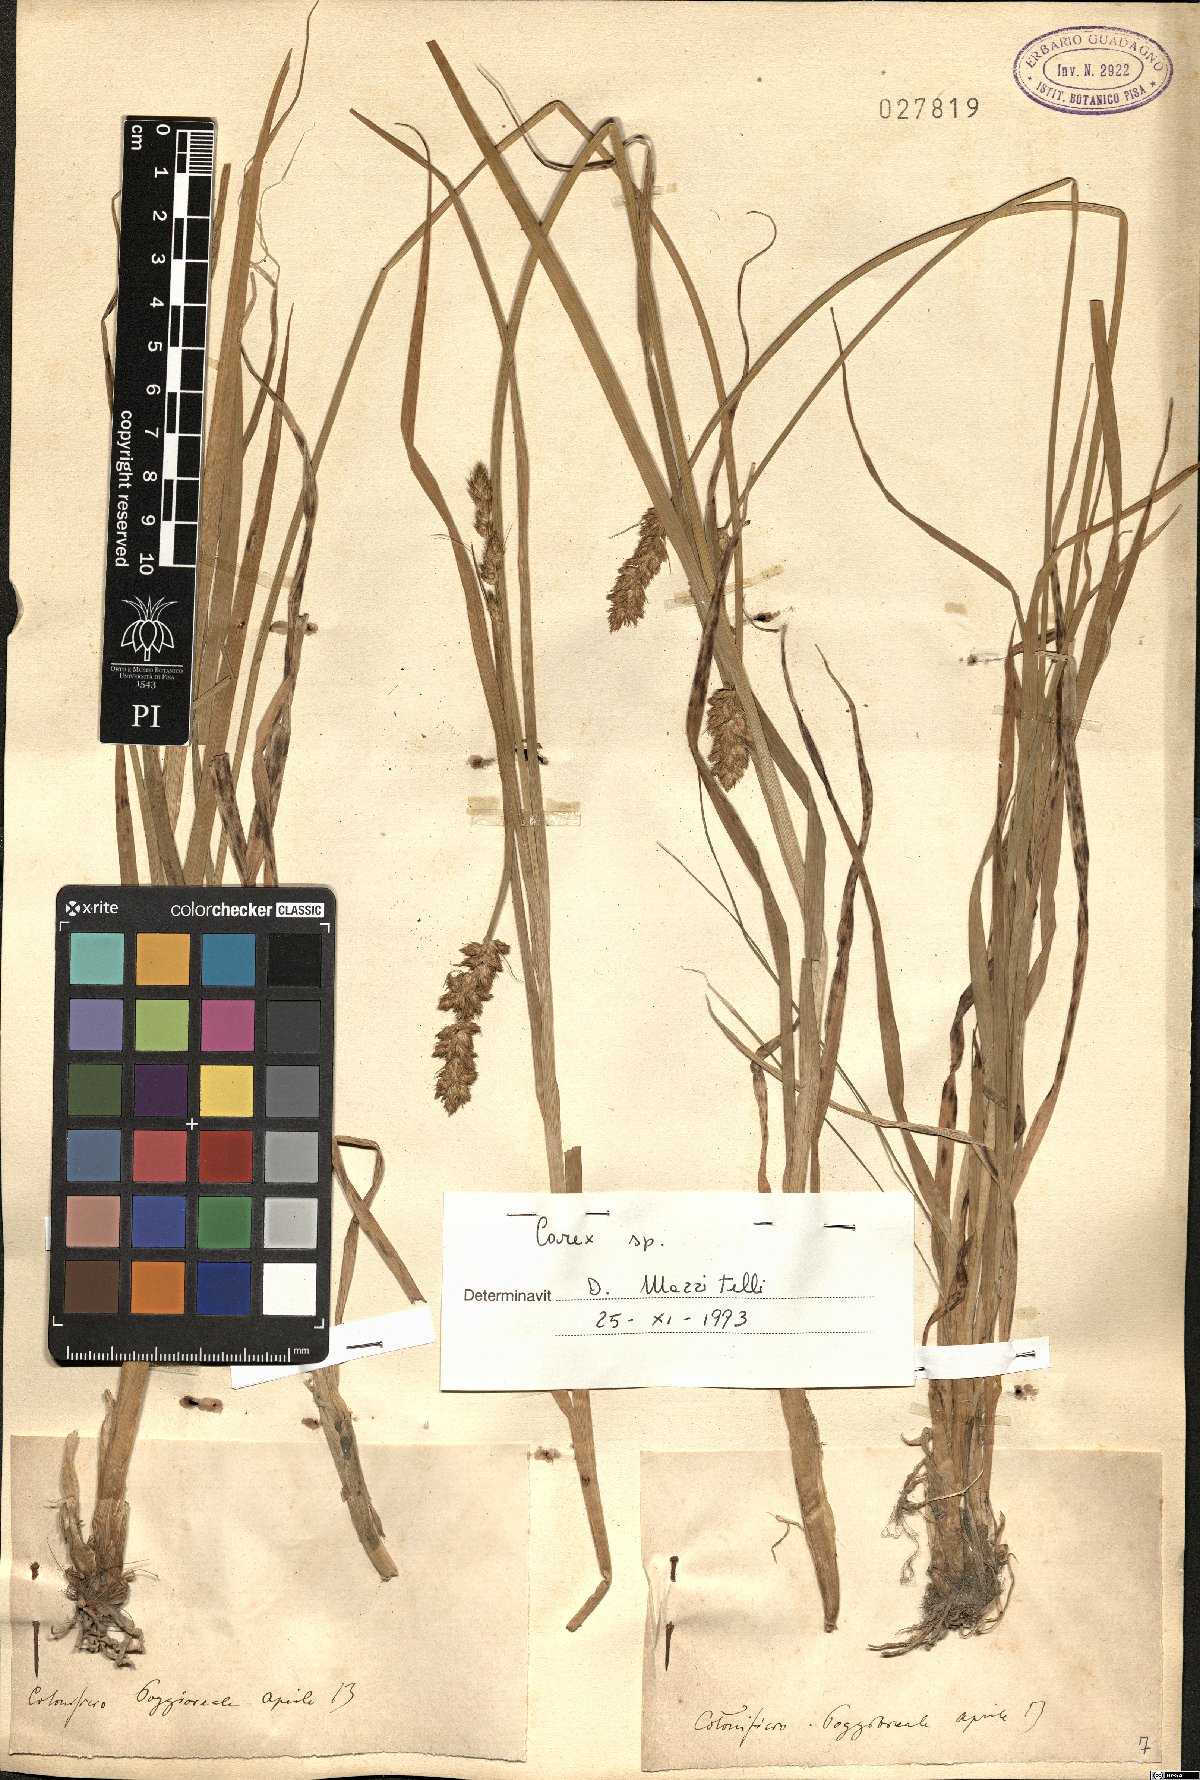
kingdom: Plantae
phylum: Tracheophyta
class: Liliopsida
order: Poales
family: Cyperaceae
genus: Carex
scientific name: Carex
